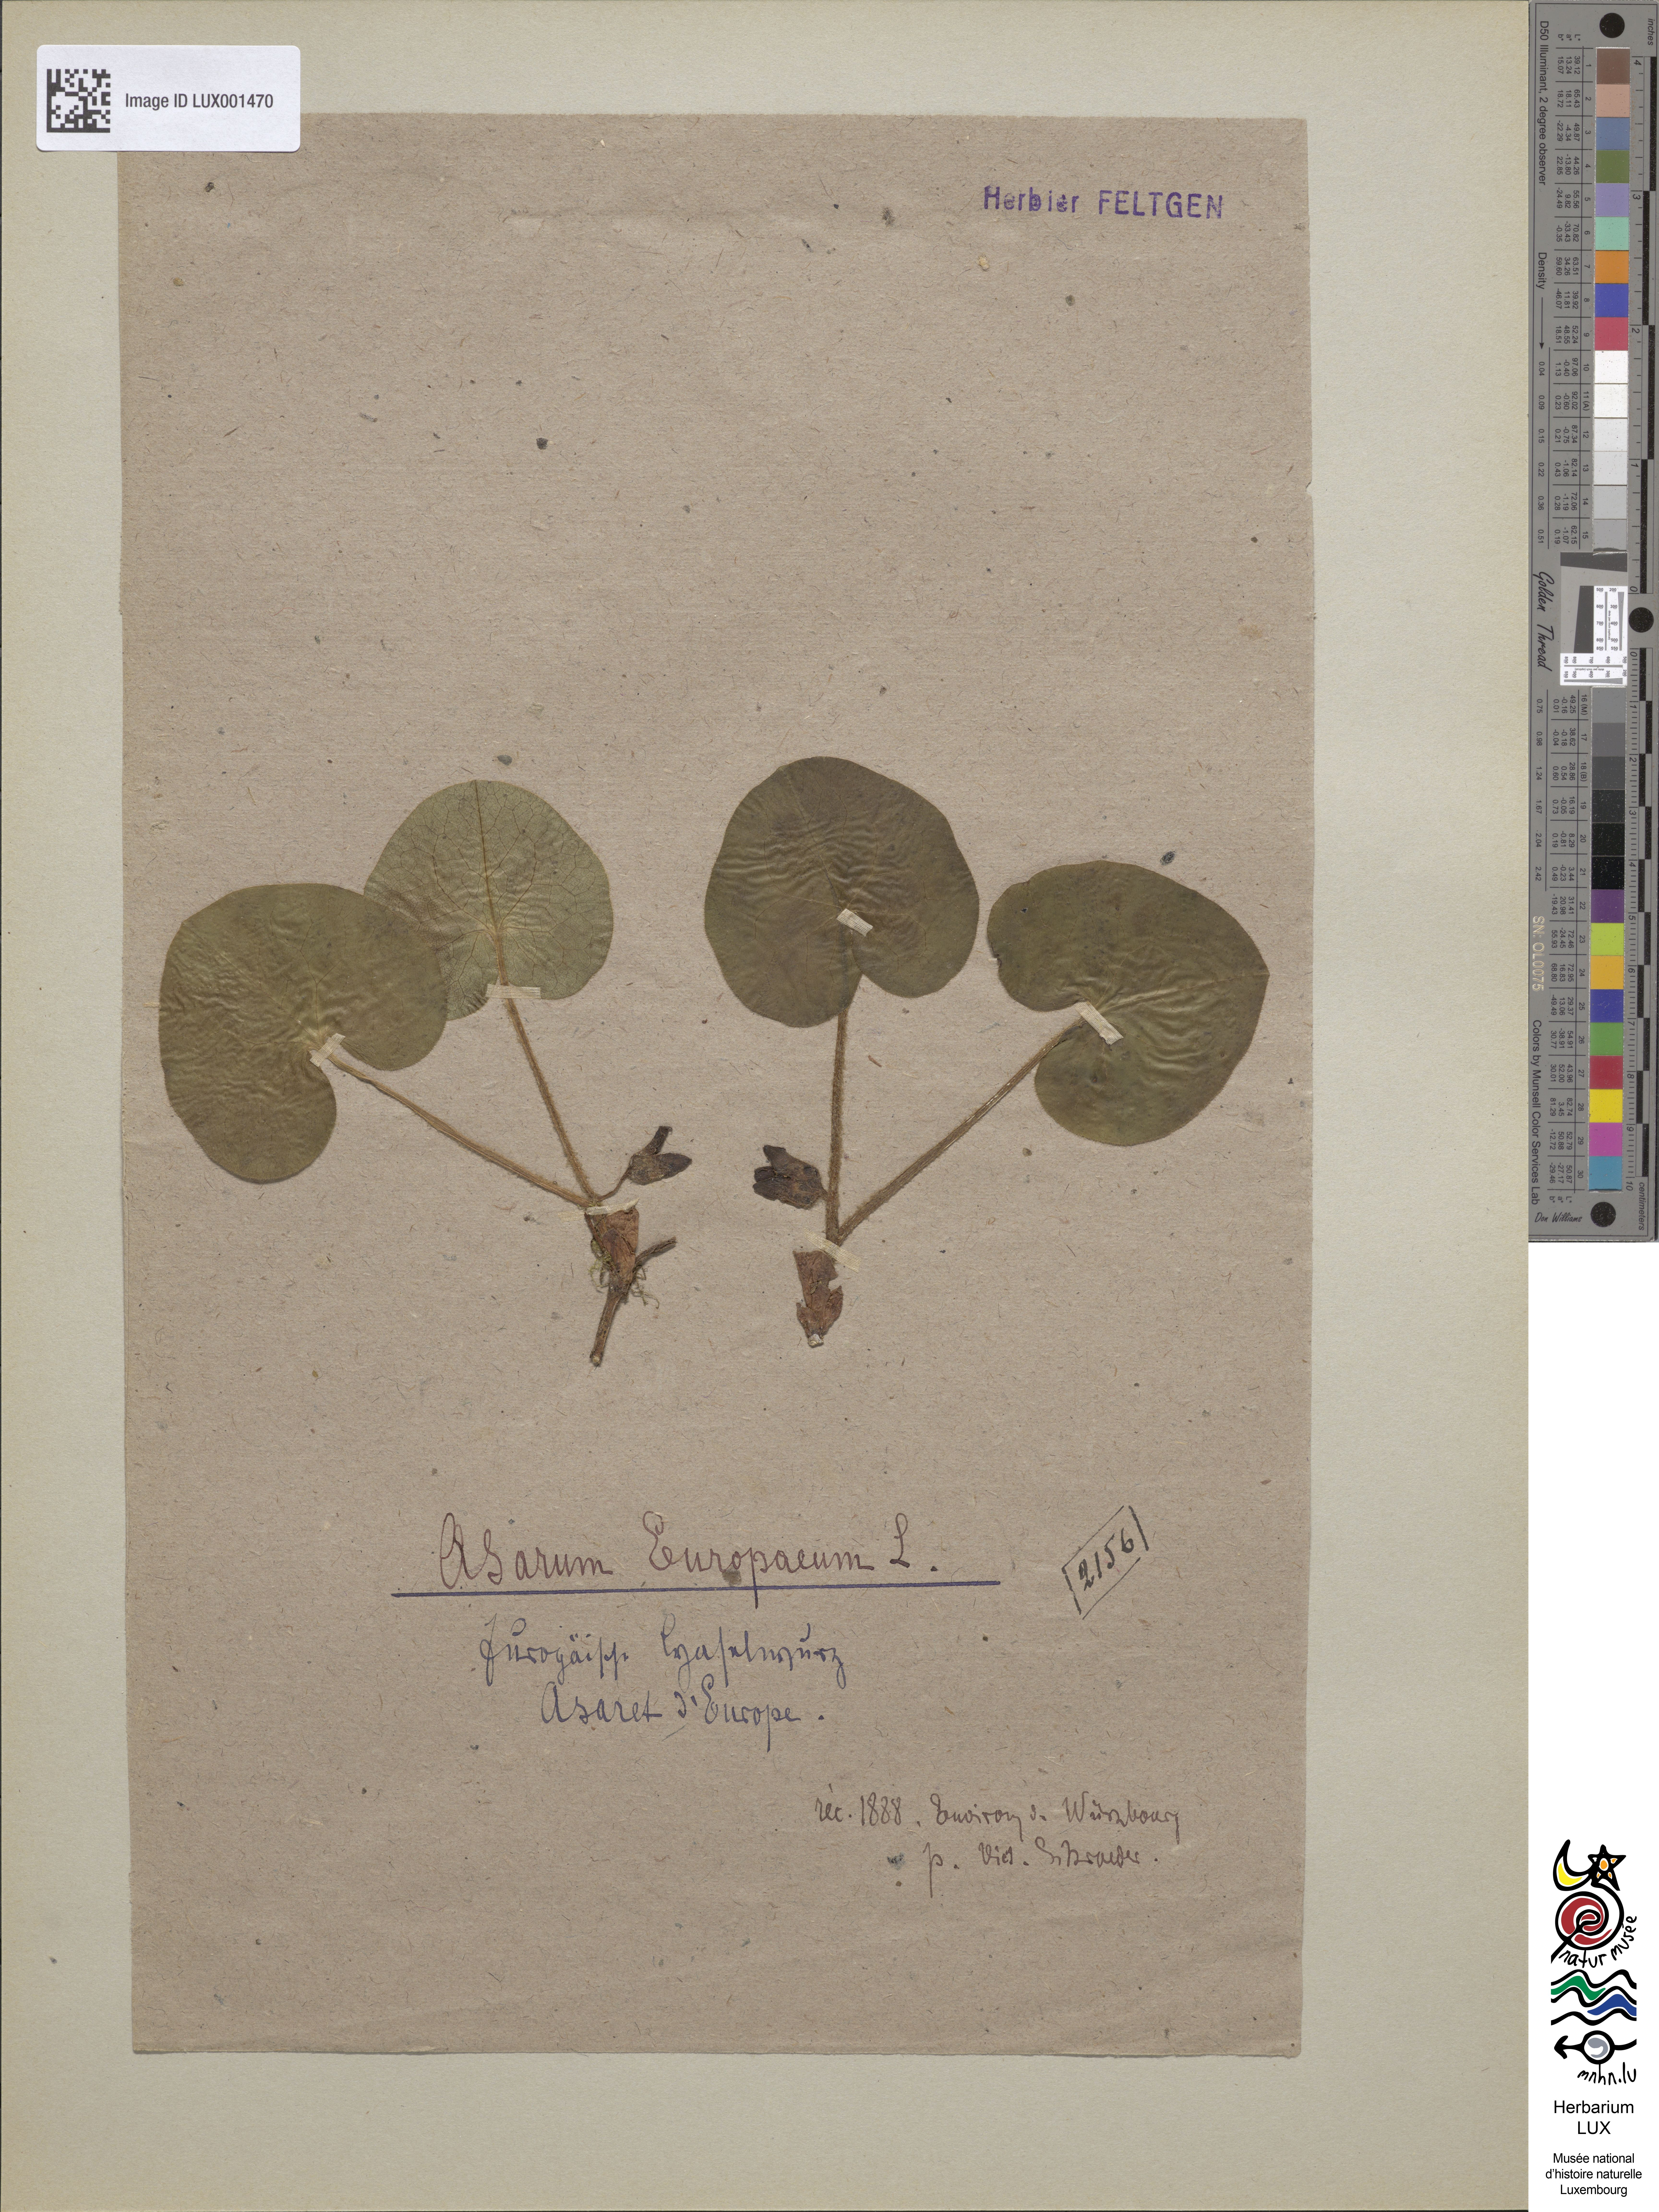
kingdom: Plantae
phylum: Tracheophyta
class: Magnoliopsida
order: Piperales
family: Aristolochiaceae
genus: Asarum
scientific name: Asarum europaeum
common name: Asarabacca
